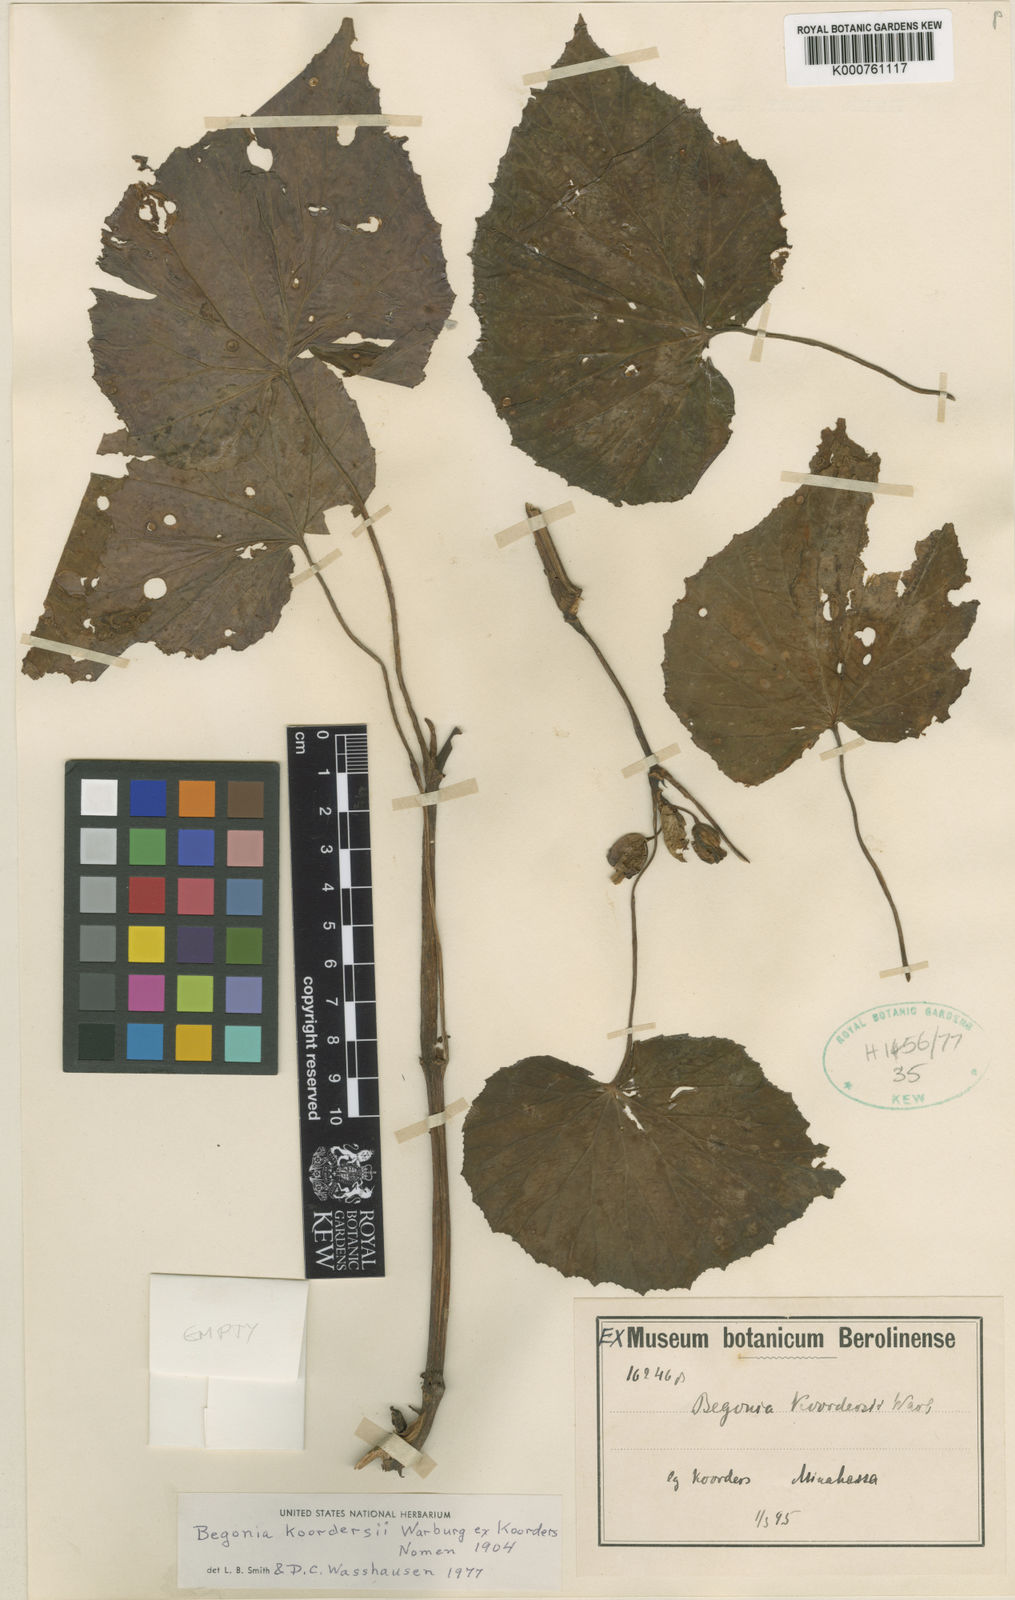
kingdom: Plantae
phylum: Tracheophyta
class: Magnoliopsida
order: Cucurbitales
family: Begoniaceae
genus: Begonia
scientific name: Begonia koordersii
